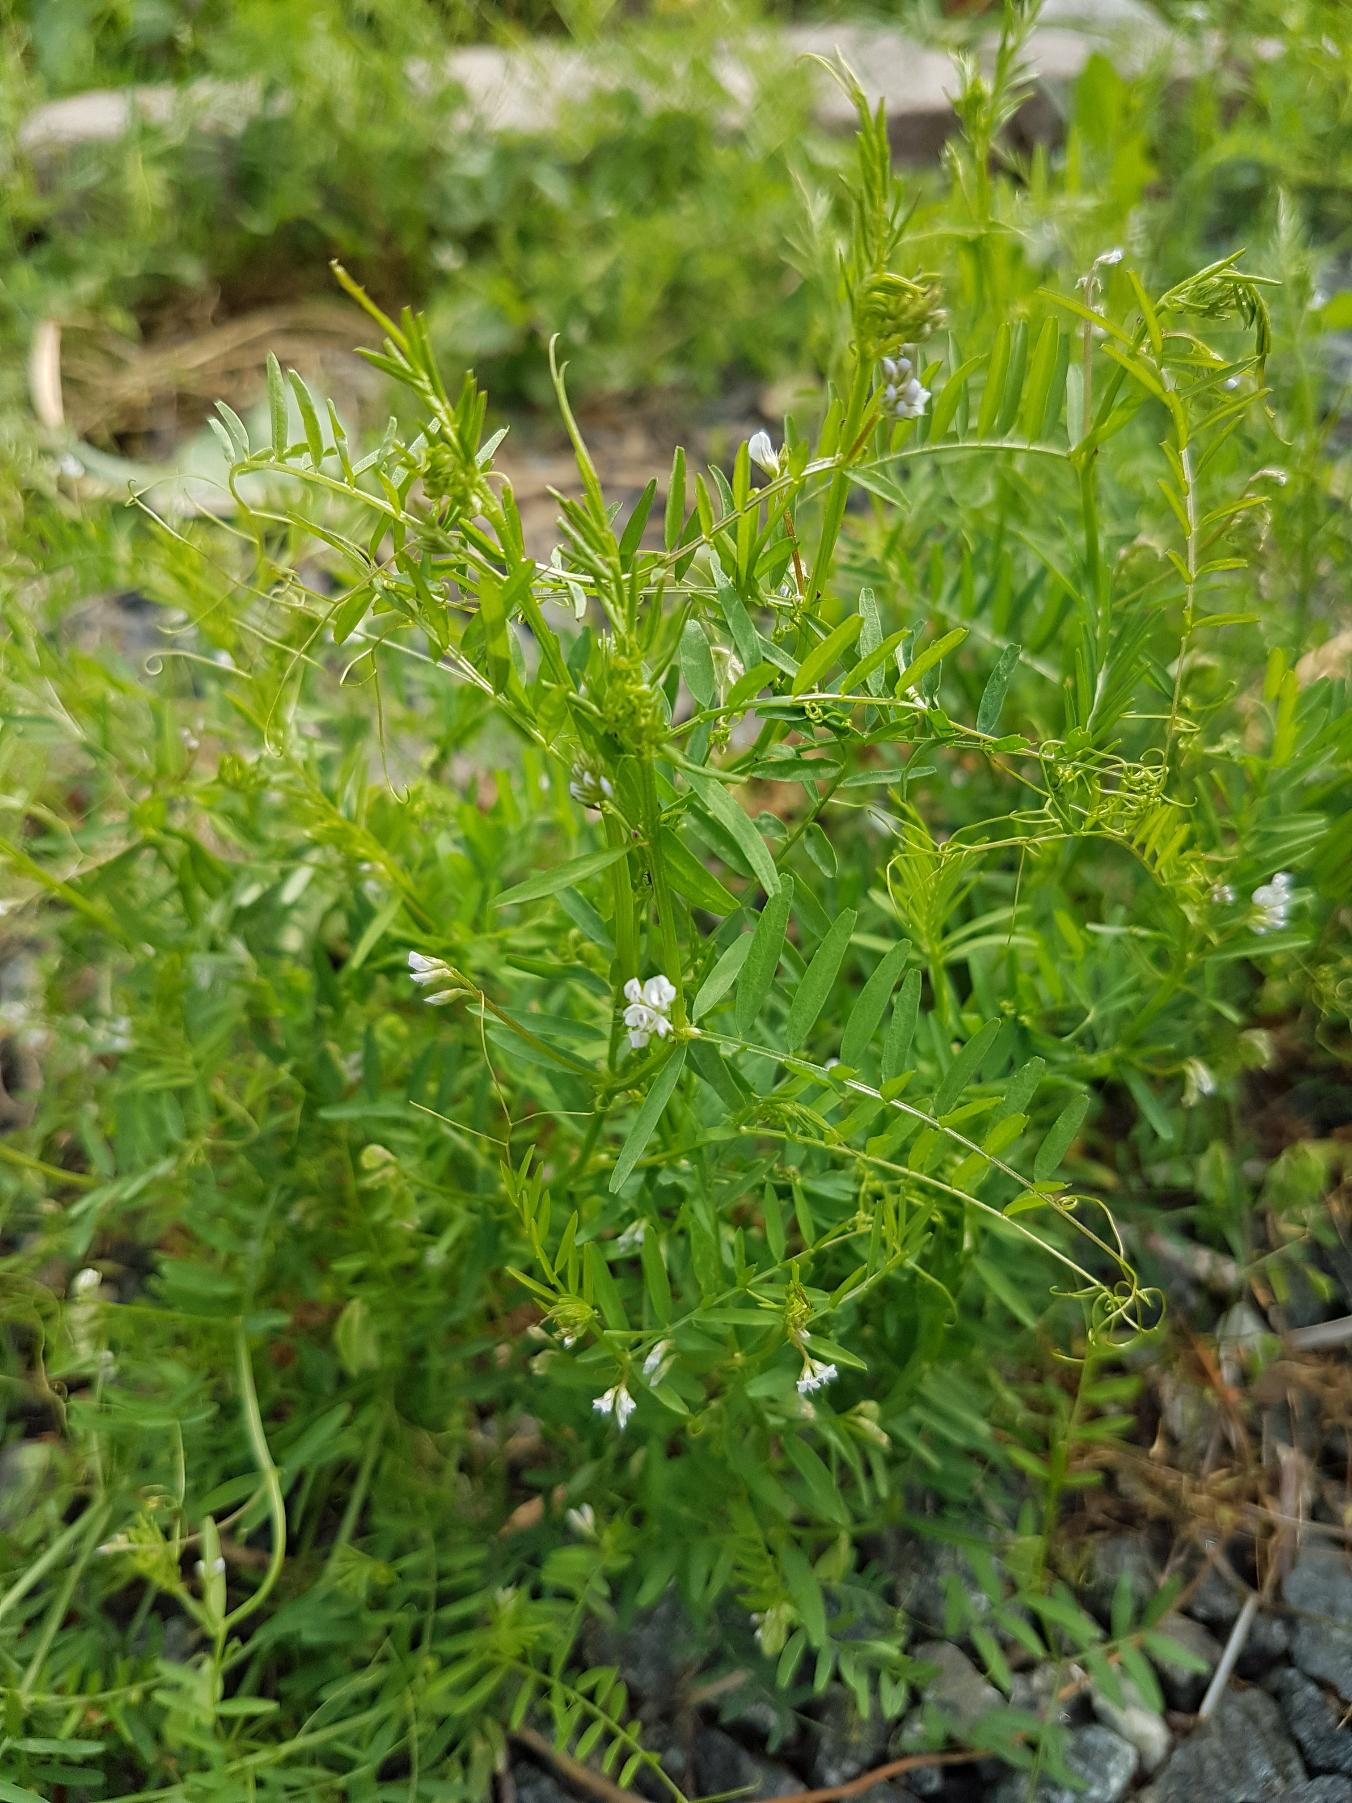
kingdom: Plantae
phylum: Tracheophyta
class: Magnoliopsida
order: Fabales
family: Fabaceae
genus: Vicia
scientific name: Vicia hirsuta
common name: Tofrøet vikke
